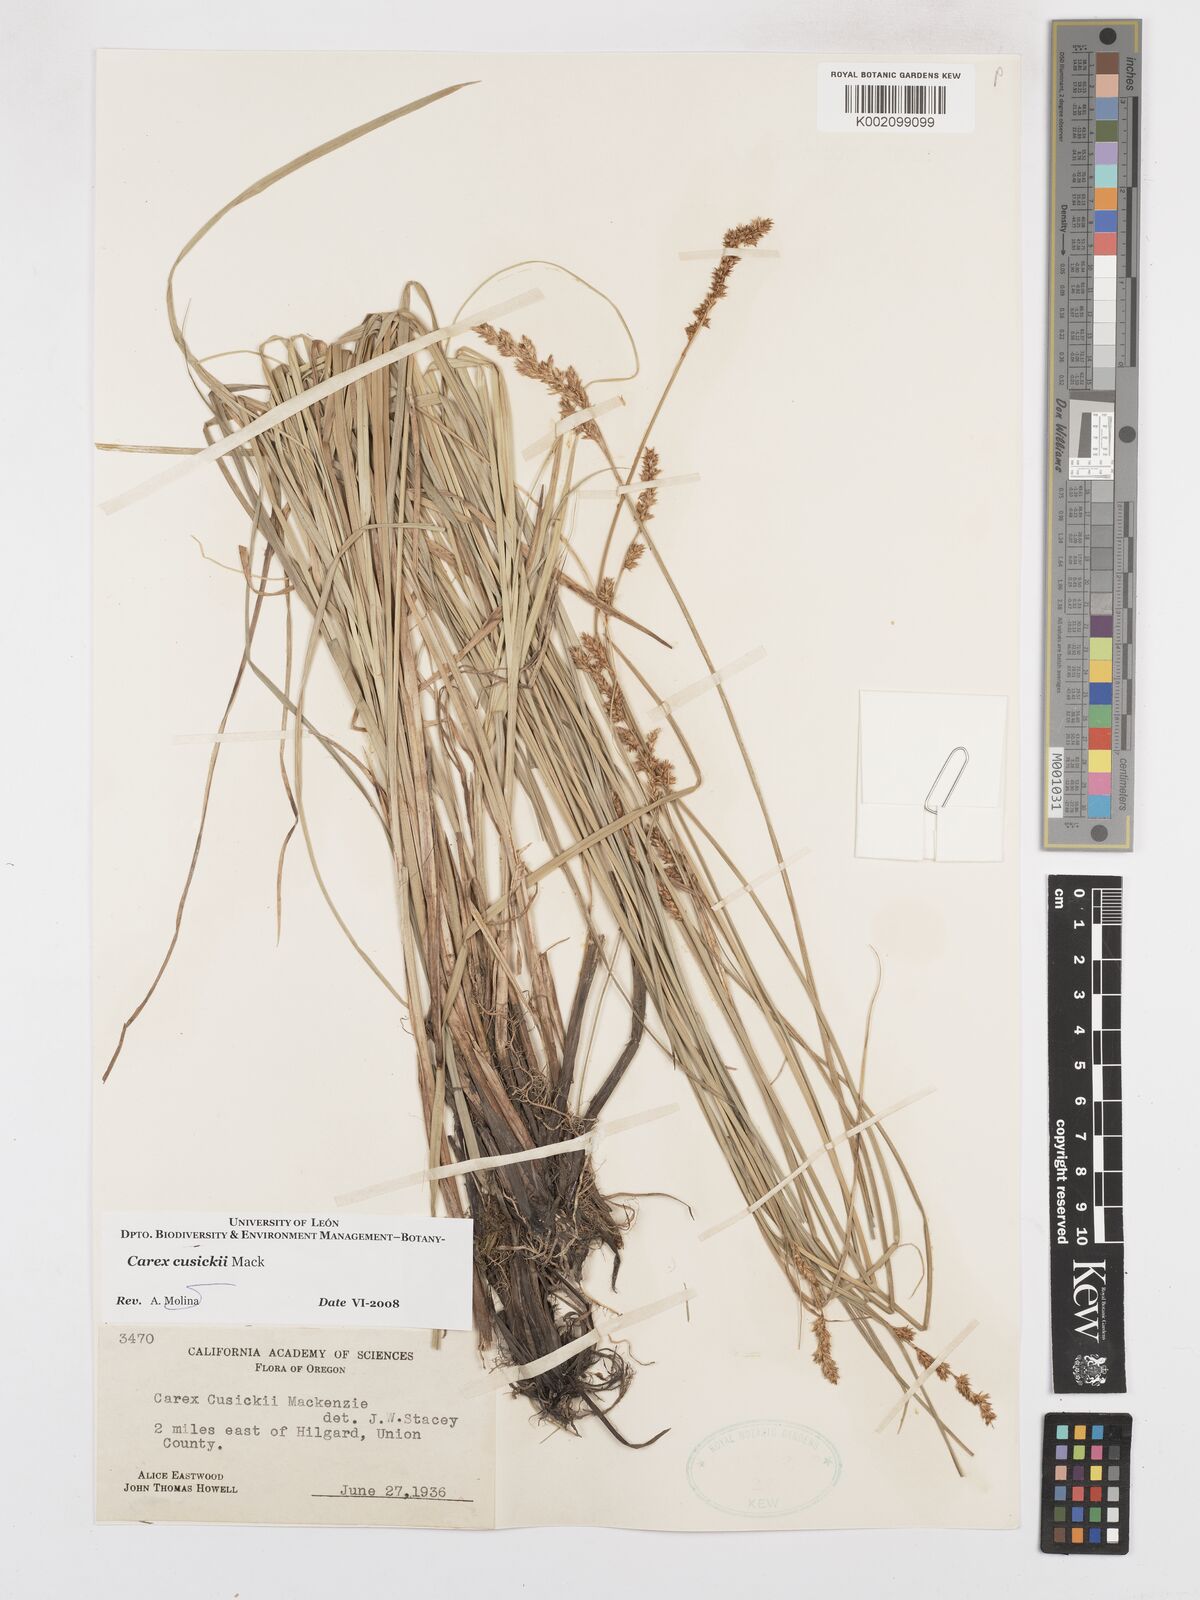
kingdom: Plantae
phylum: Tracheophyta
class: Liliopsida
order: Poales
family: Cyperaceae
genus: Carex
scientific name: Carex cusickii
